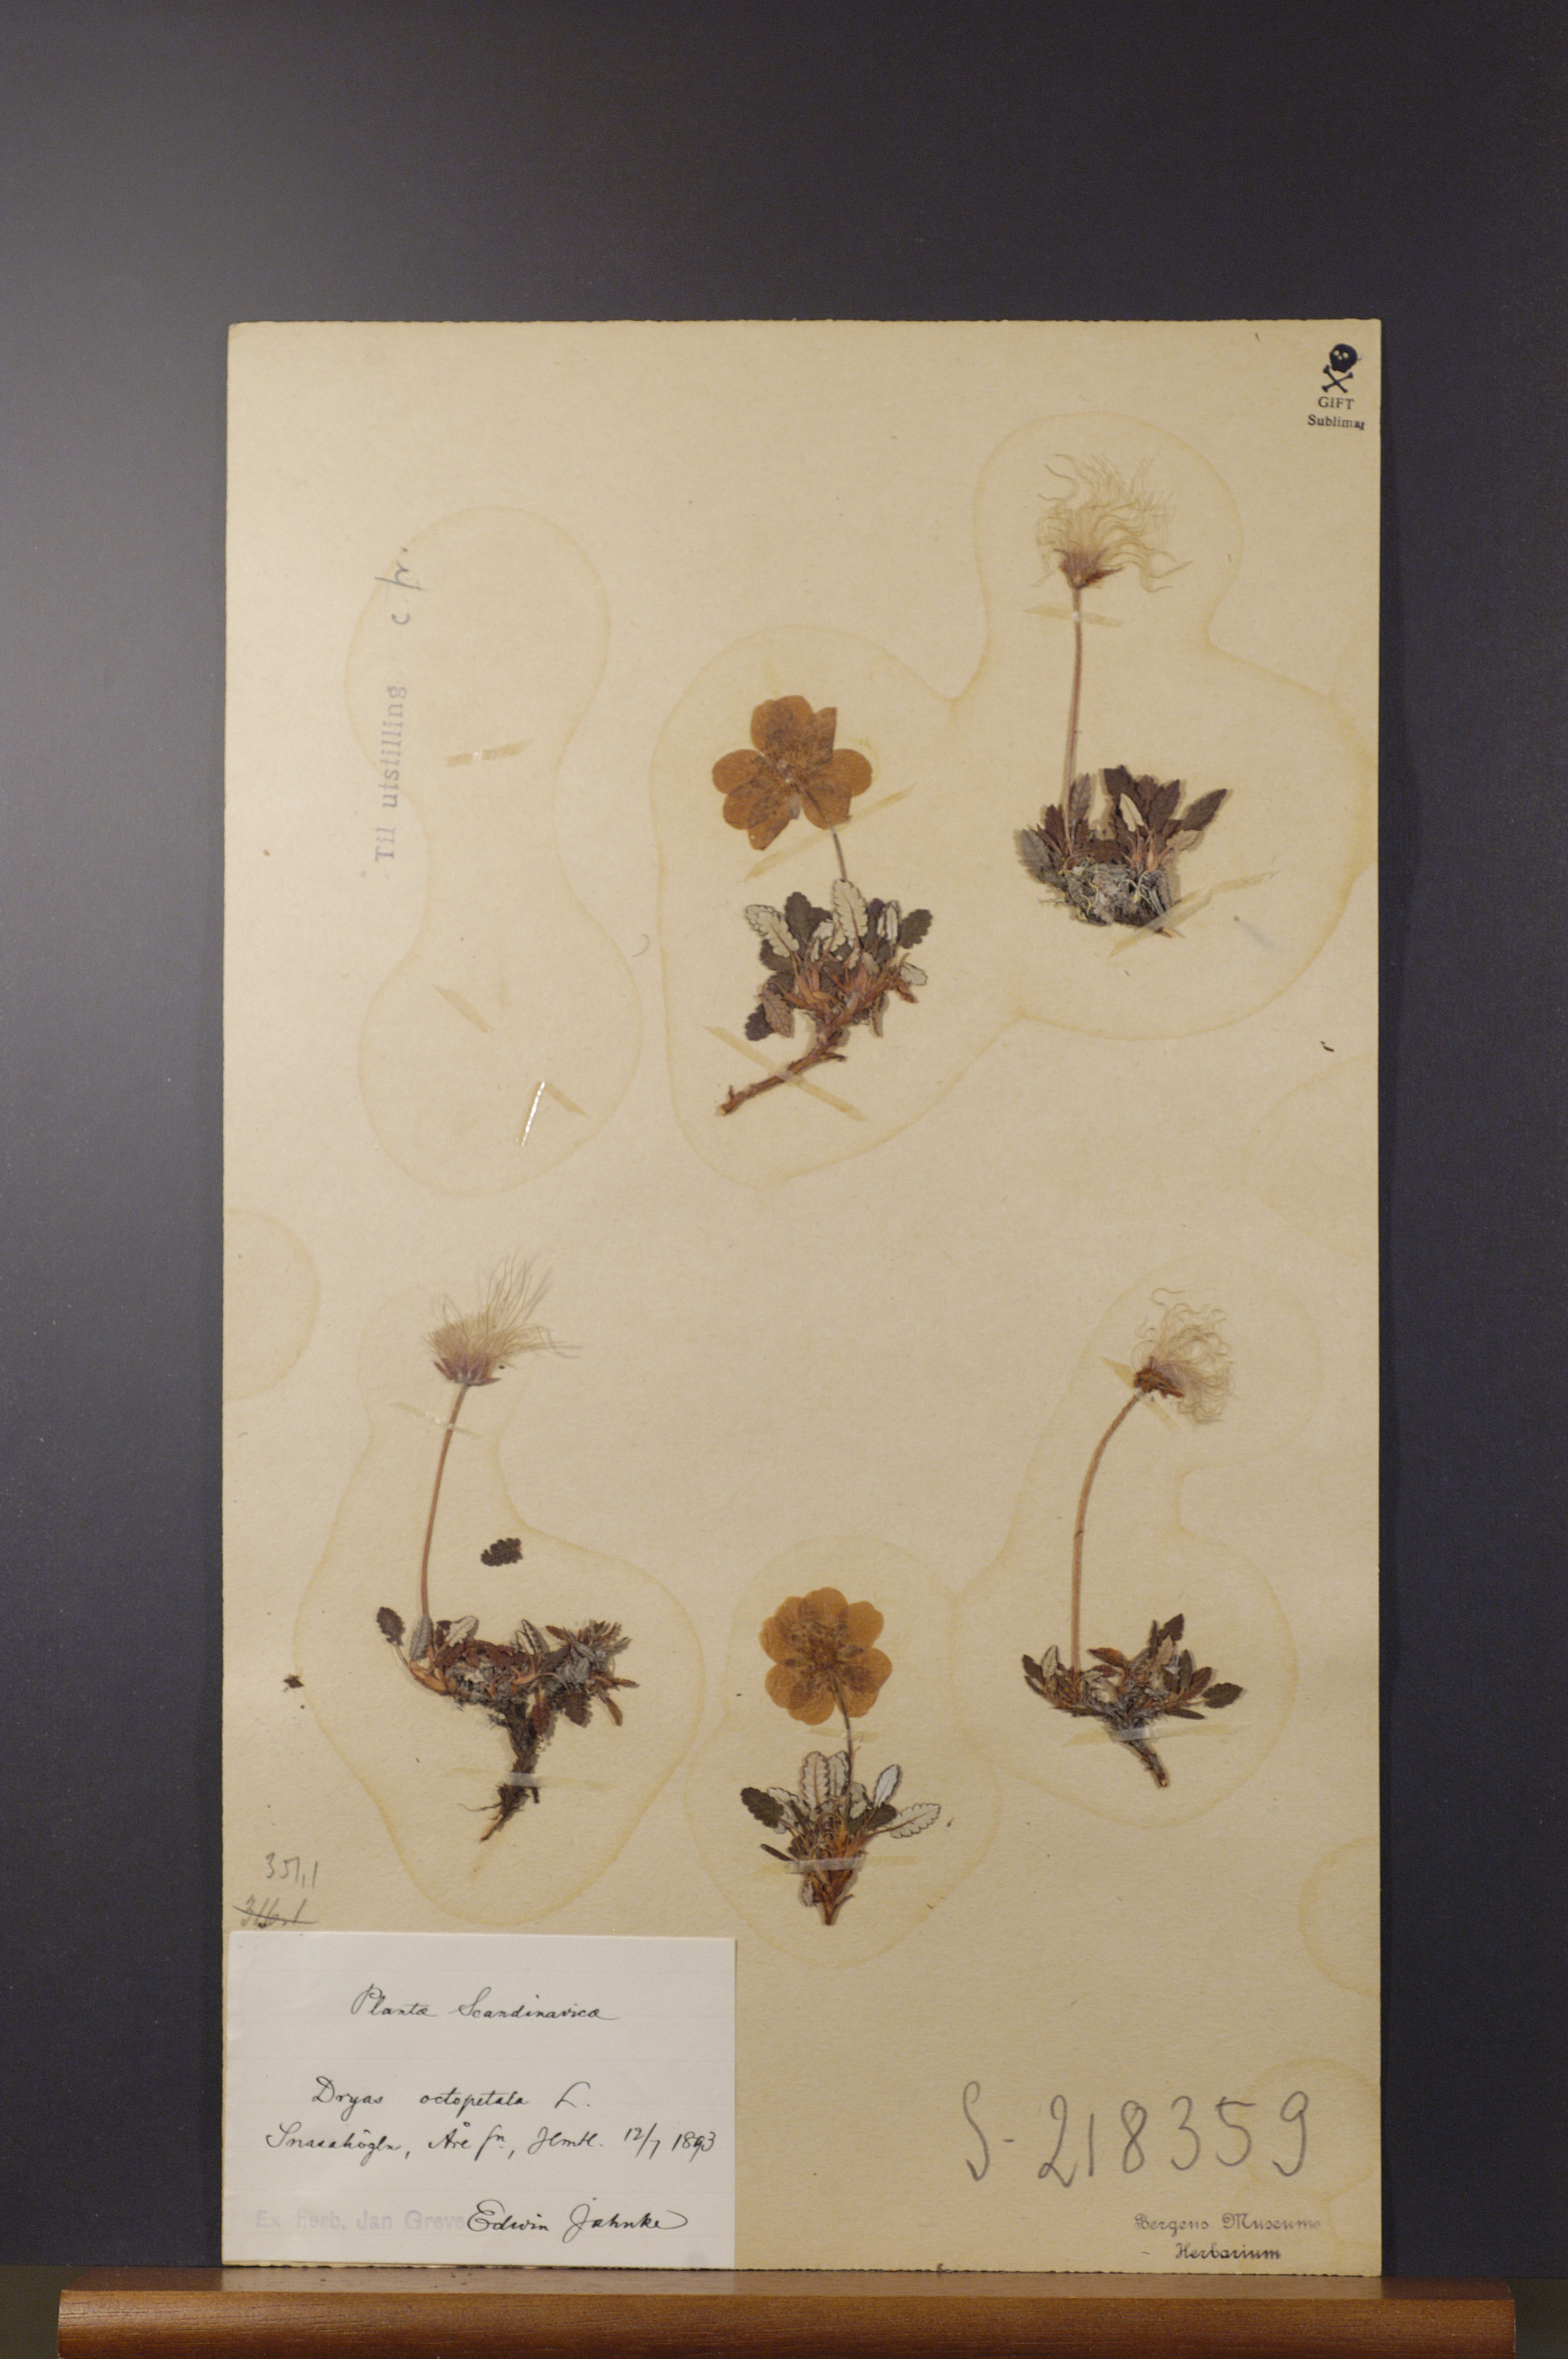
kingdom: Plantae
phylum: Tracheophyta
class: Magnoliopsida
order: Rosales
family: Rosaceae
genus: Dryas
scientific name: Dryas octopetala
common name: Eight-petal mountain-avens
